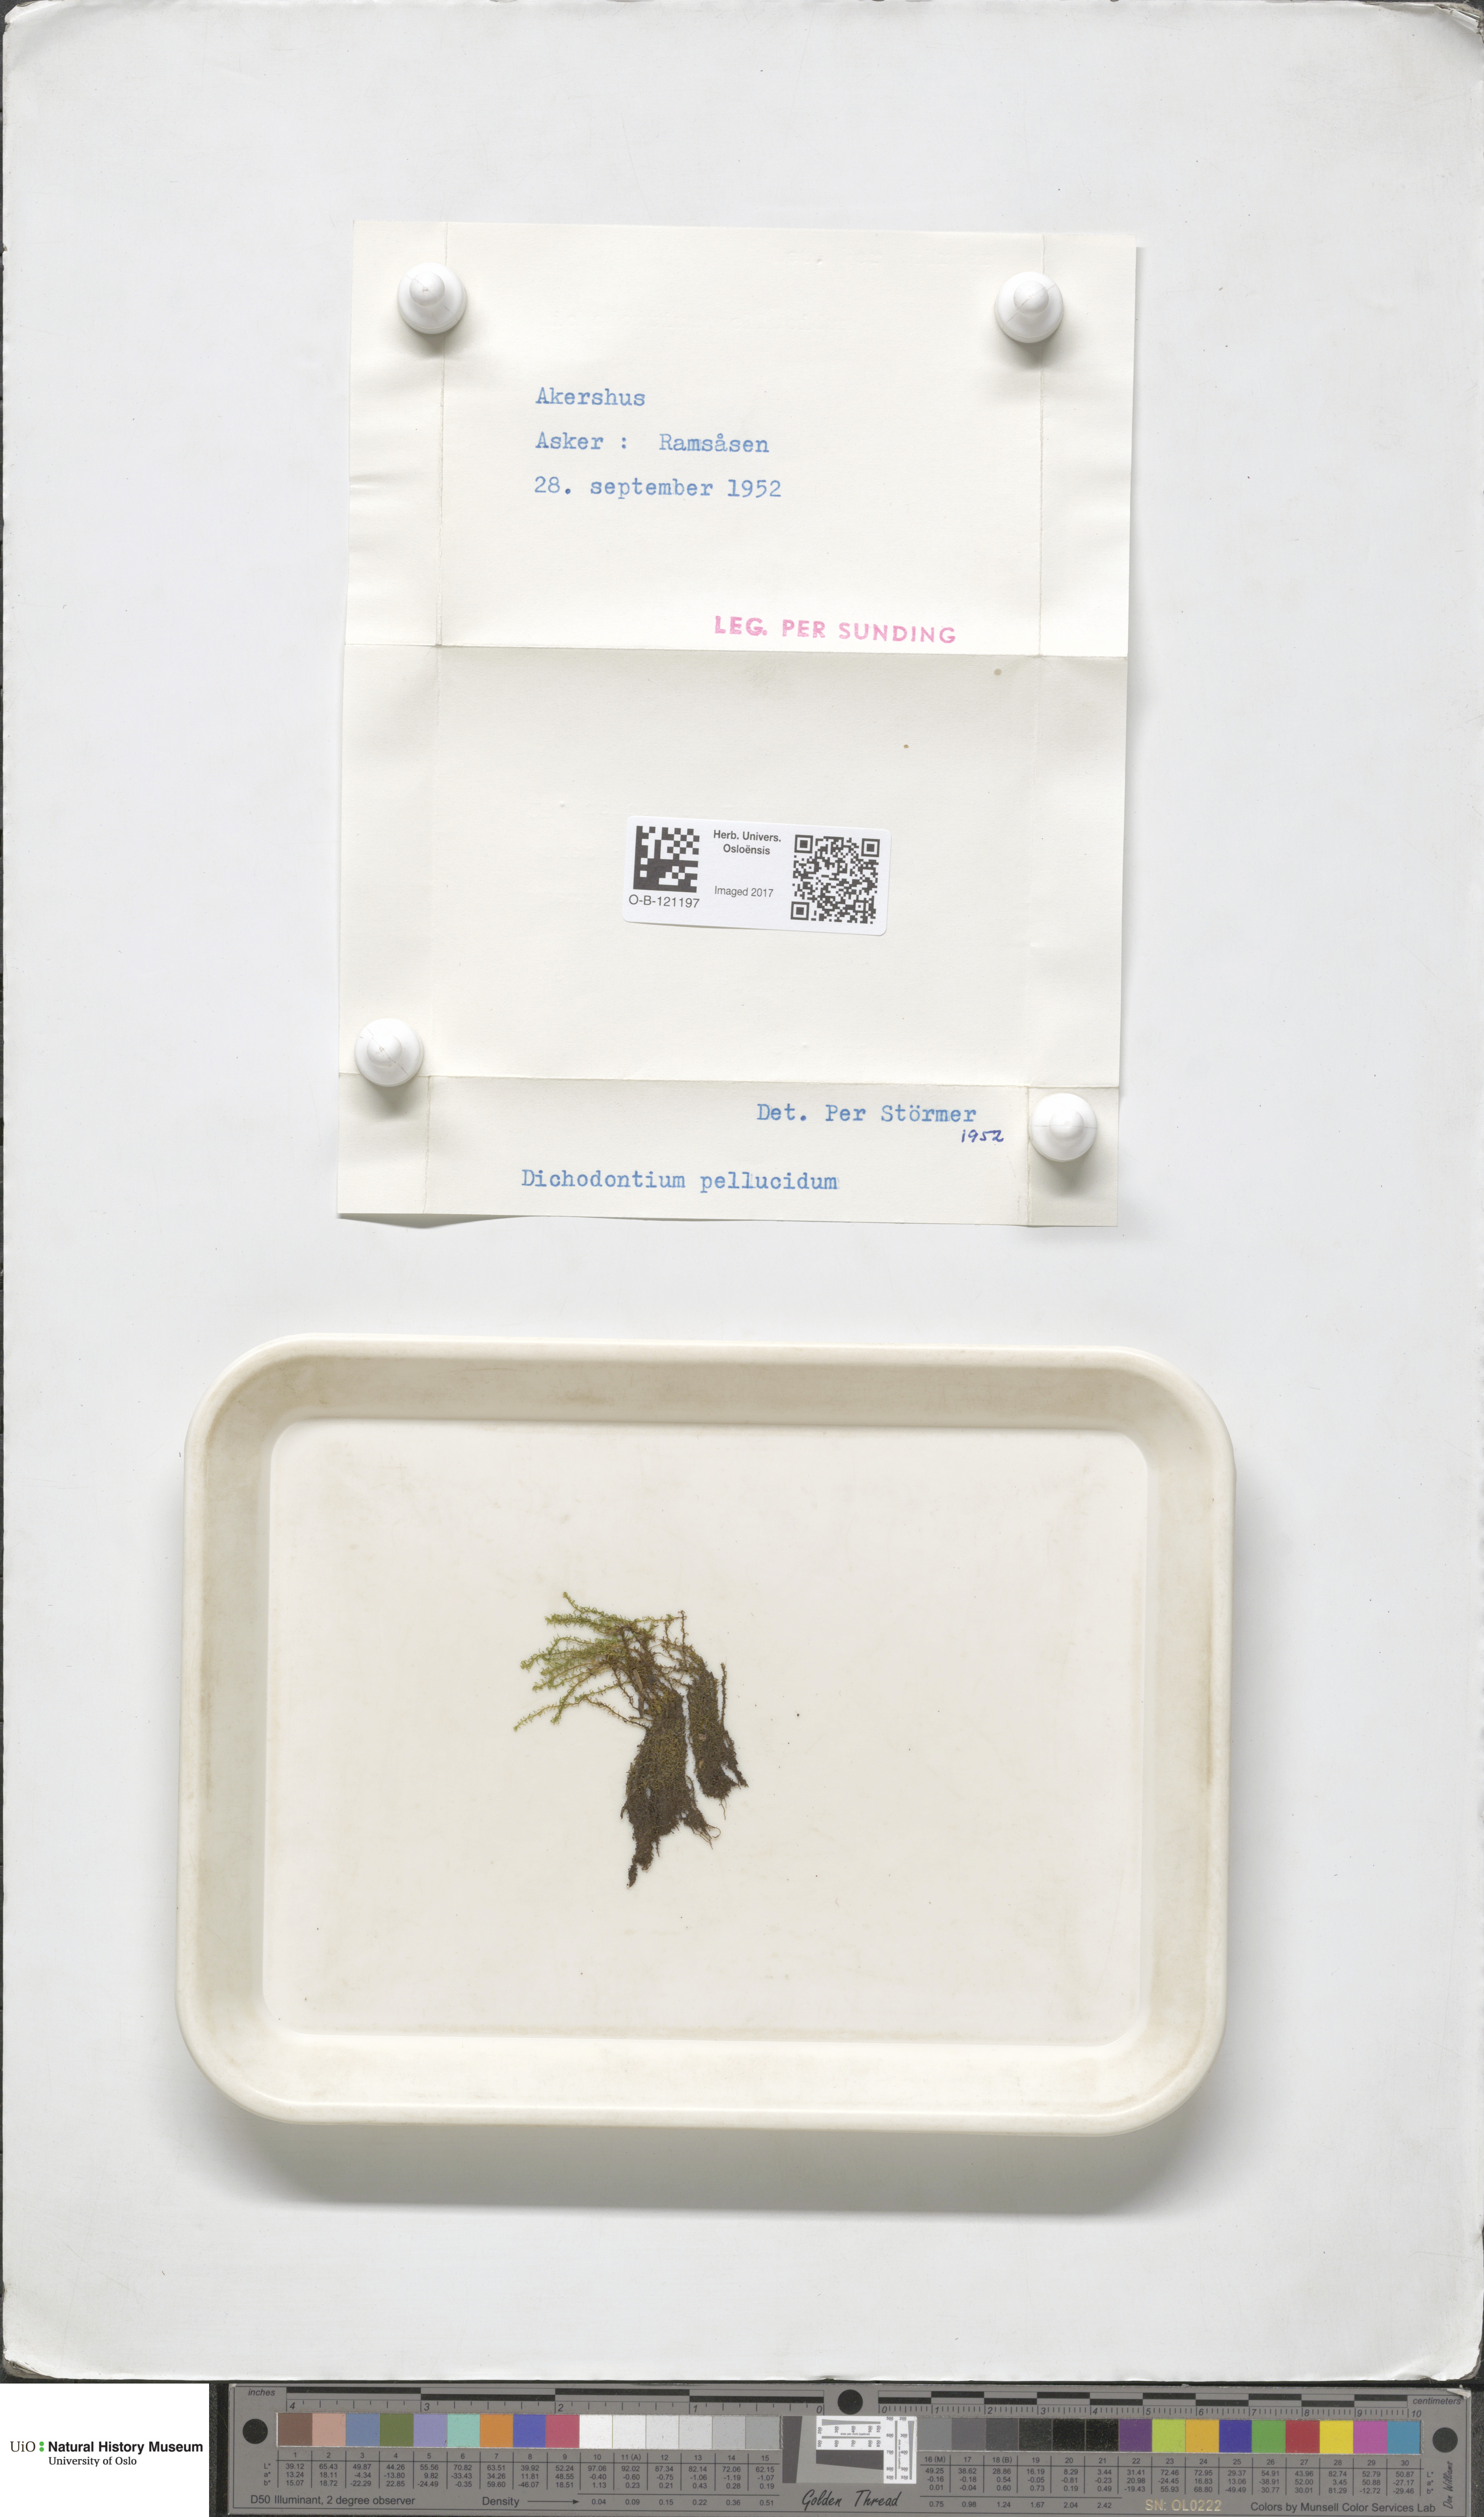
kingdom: Plantae
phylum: Bryophyta
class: Bryopsida
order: Dicranales
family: Aongstroemiaceae
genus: Dichodontium
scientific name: Dichodontium pellucidum
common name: Transparent fork moss
